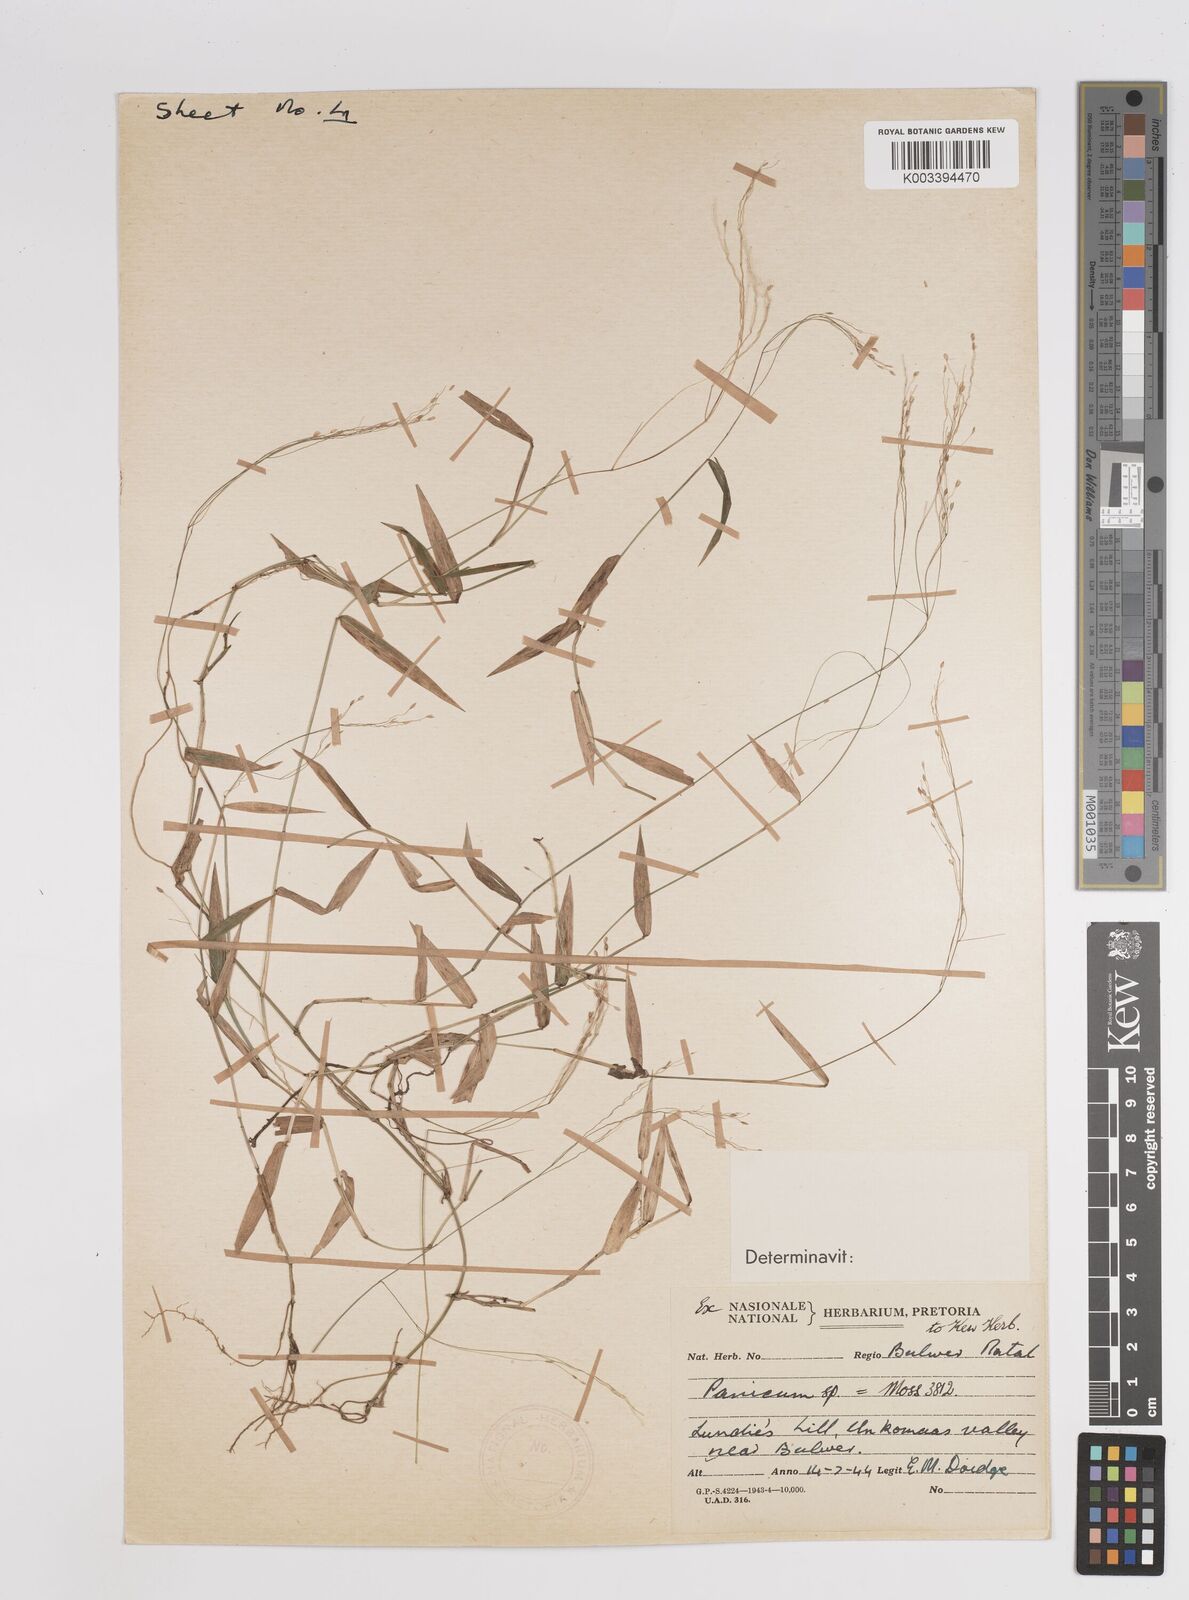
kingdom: Plantae
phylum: Tracheophyta
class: Liliopsida
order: Poales
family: Poaceae
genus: Panicum
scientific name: Panicum
